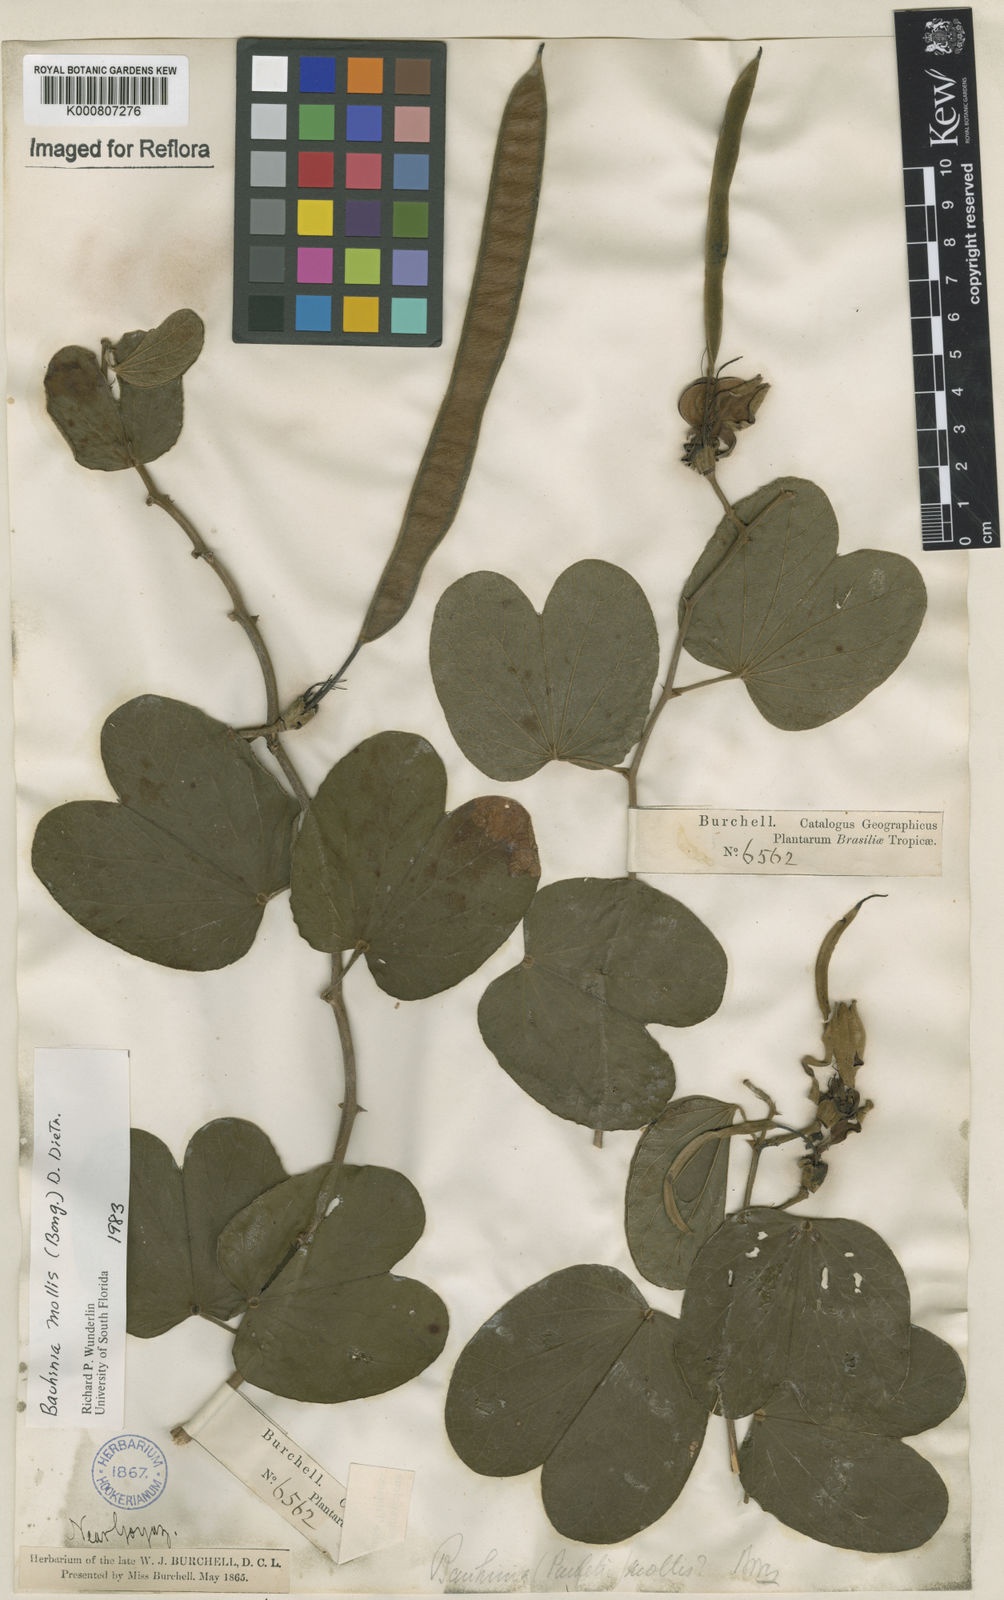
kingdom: Plantae
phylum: Tracheophyta
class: Magnoliopsida
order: Fabales
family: Fabaceae
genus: Bauhinia
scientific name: Bauhinia mollis
